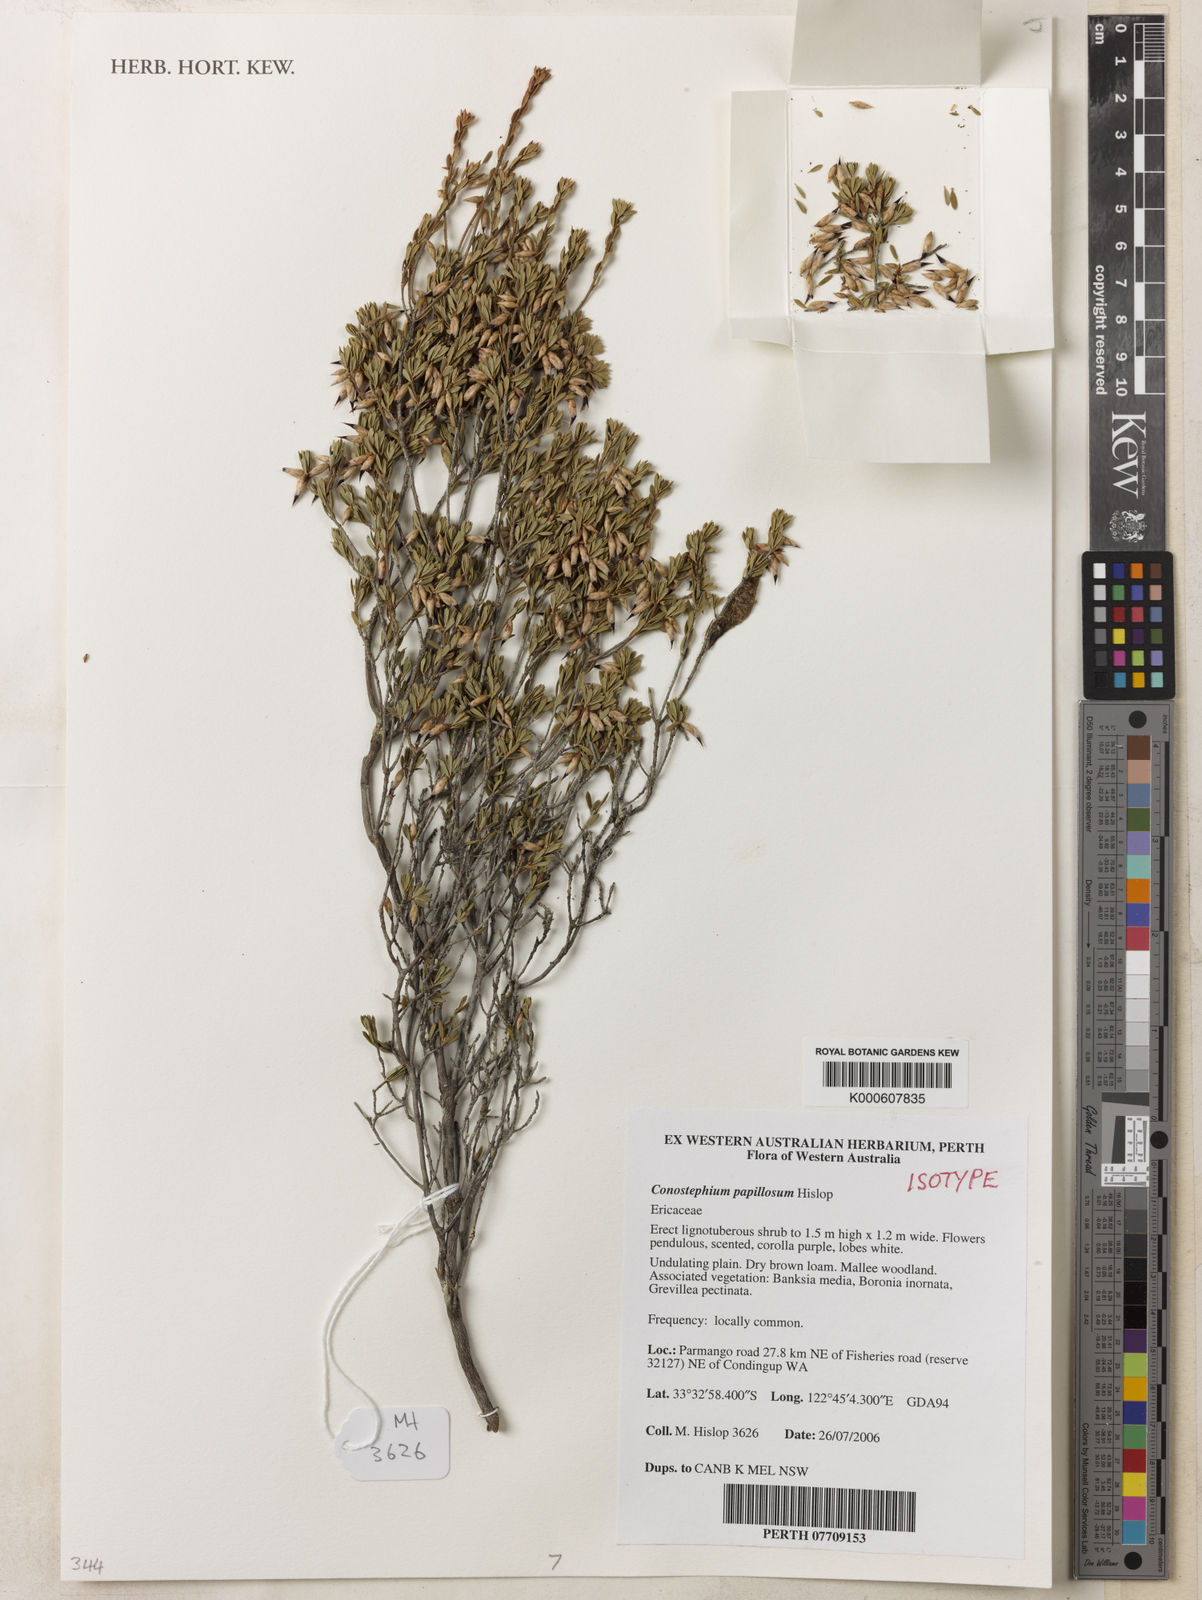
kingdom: Plantae
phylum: Tracheophyta
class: Magnoliopsida
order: Ericales
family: Ericaceae
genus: Conostephium
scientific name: Conostephium papillosum
